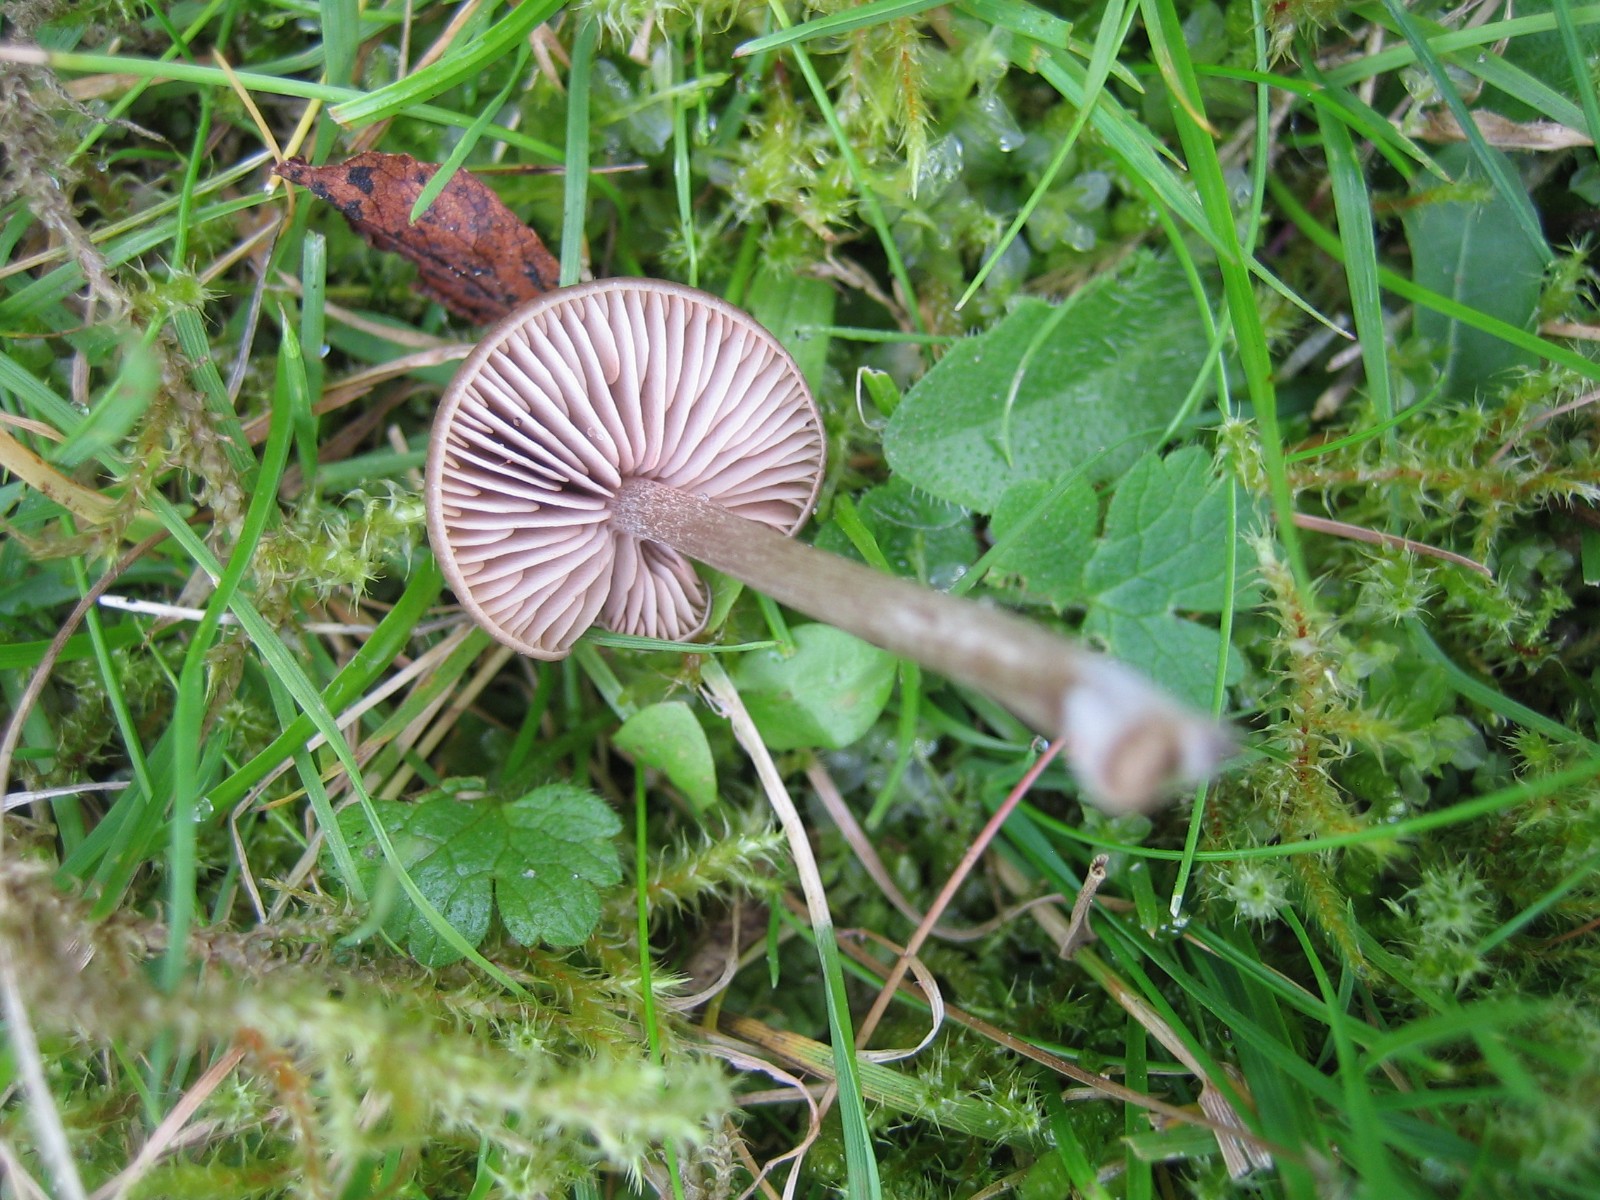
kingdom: Fungi
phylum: Basidiomycota
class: Agaricomycetes
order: Agaricales
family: Entolomataceae
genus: Entoloma
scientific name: Entoloma
